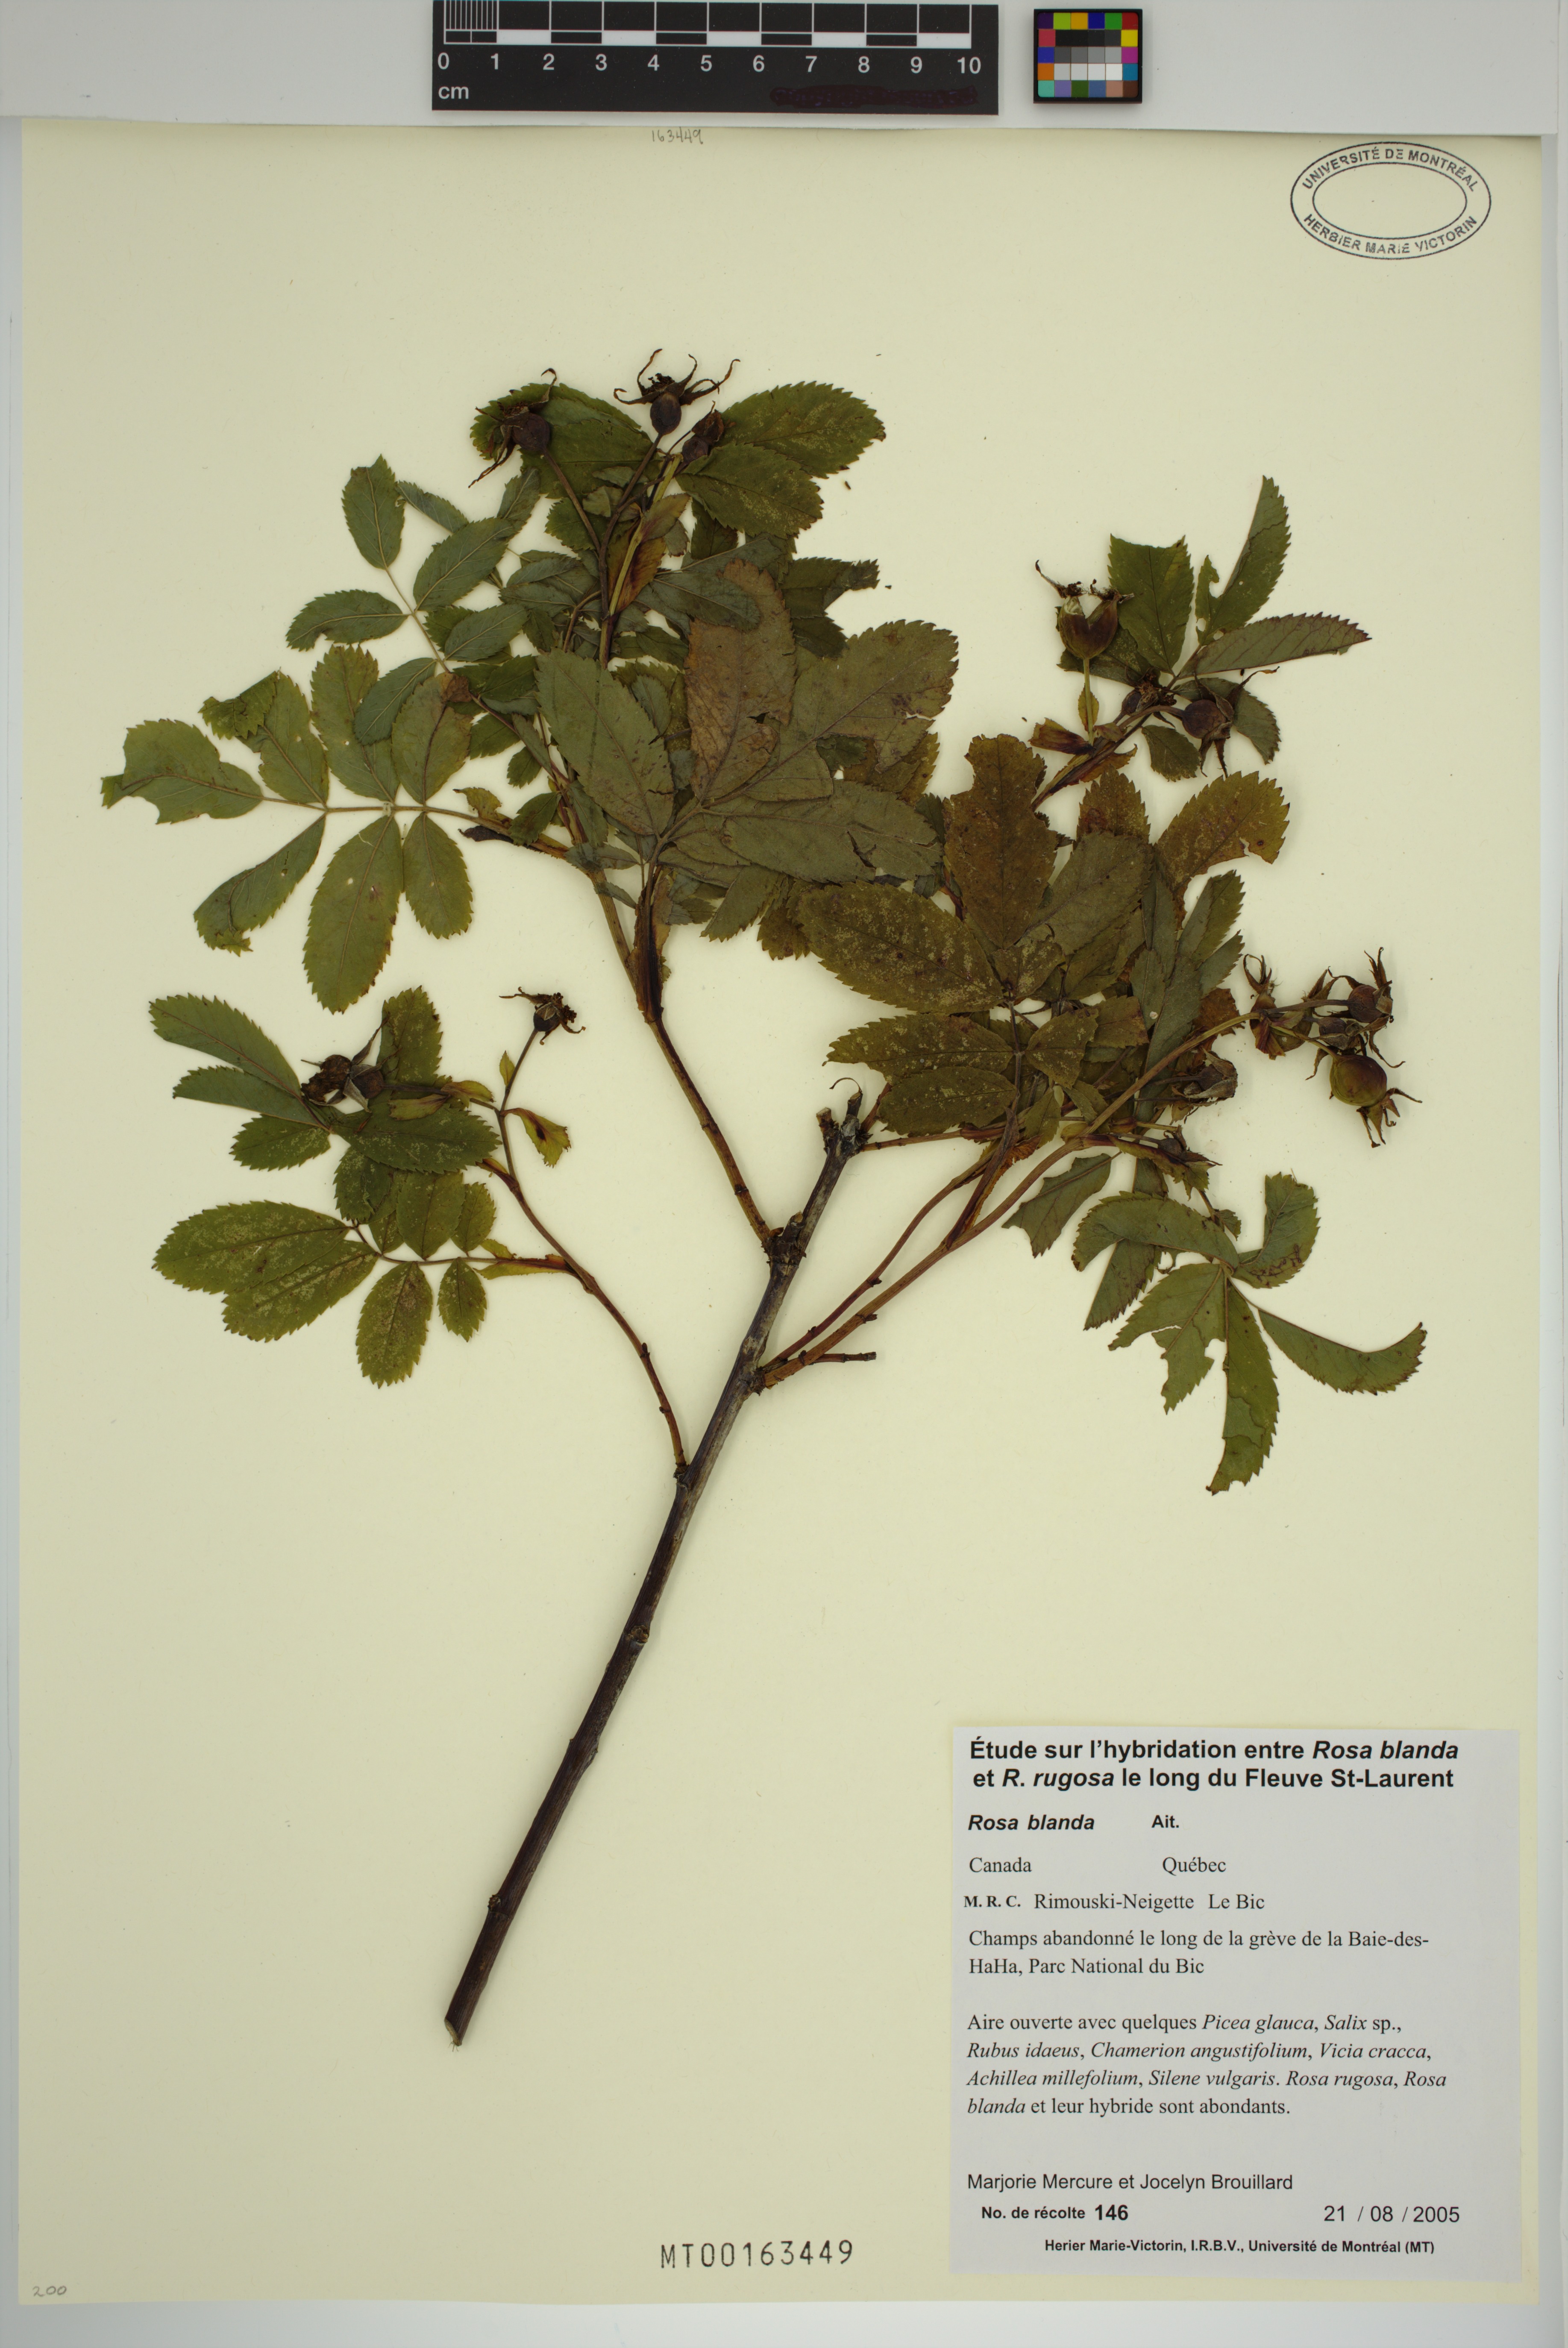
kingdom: Plantae
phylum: Tracheophyta
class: Magnoliopsida
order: Rosales
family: Rosaceae
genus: Rosa
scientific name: Rosa blanda
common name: Smooth rose
